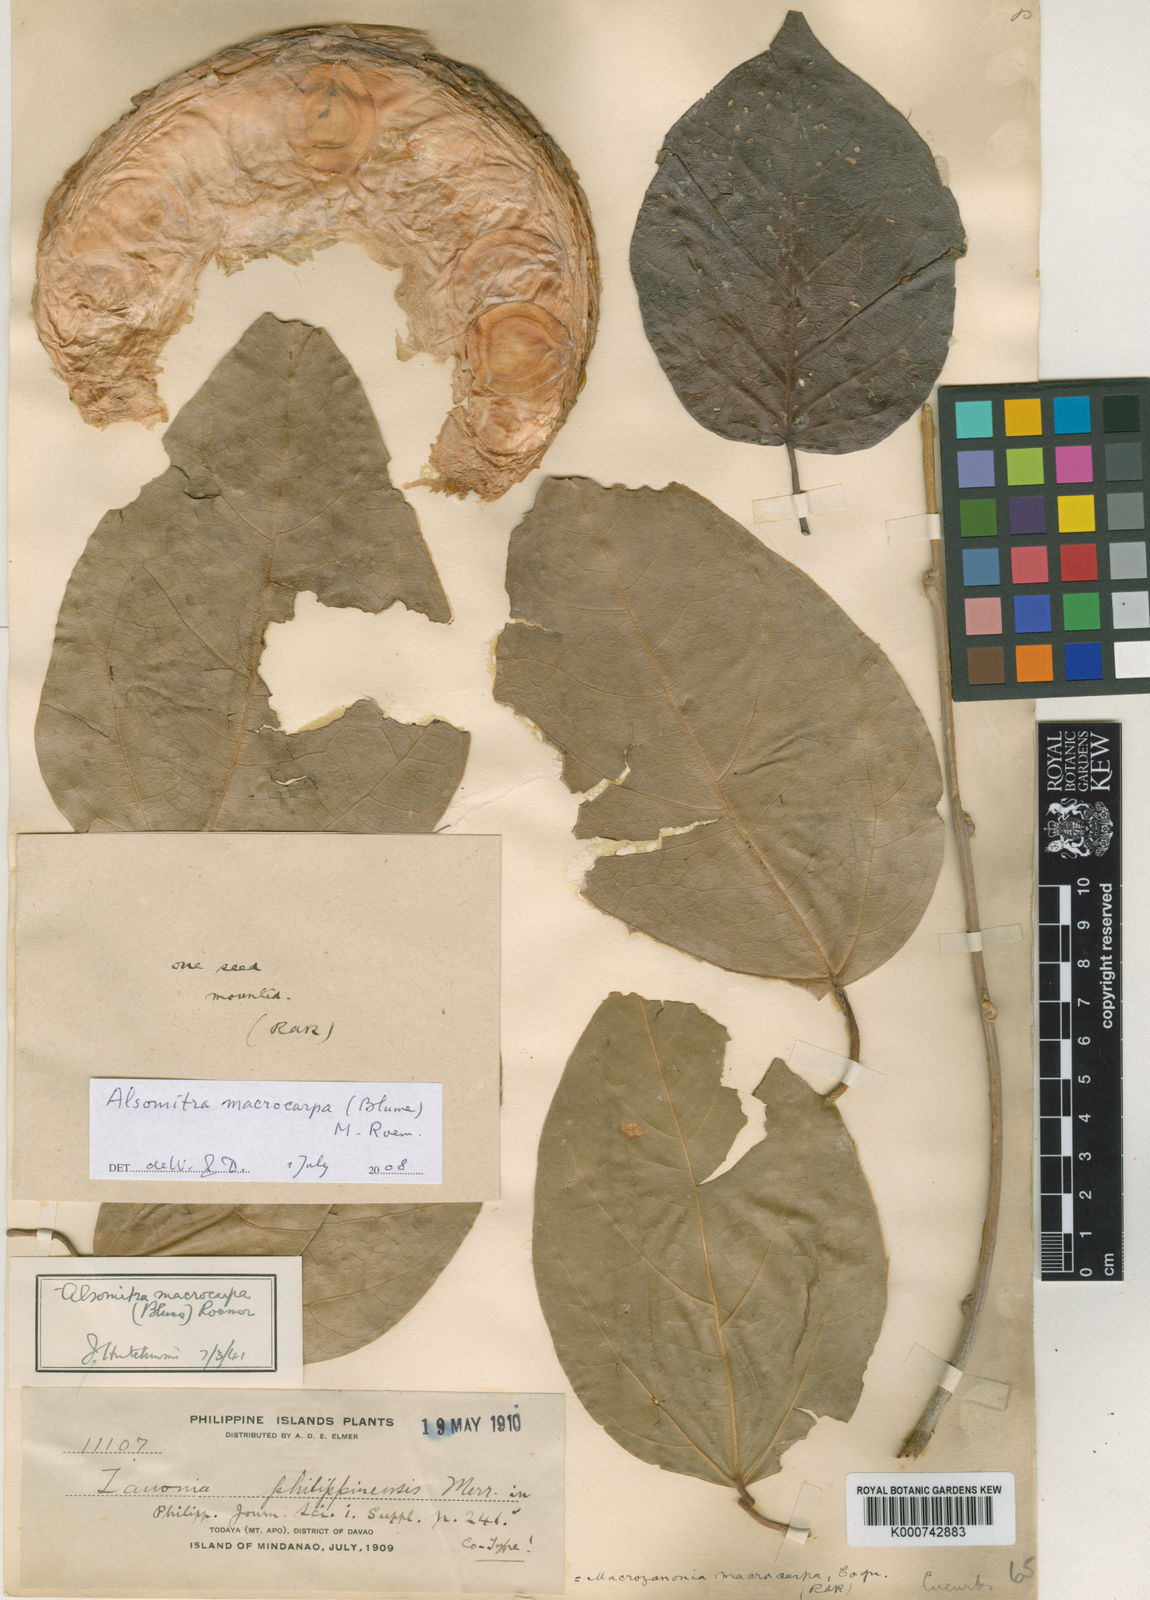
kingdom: Plantae
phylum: Tracheophyta
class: Magnoliopsida
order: Cucurbitales
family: Cucurbitaceae
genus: Alsomitra
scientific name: Alsomitra macrocarpa
